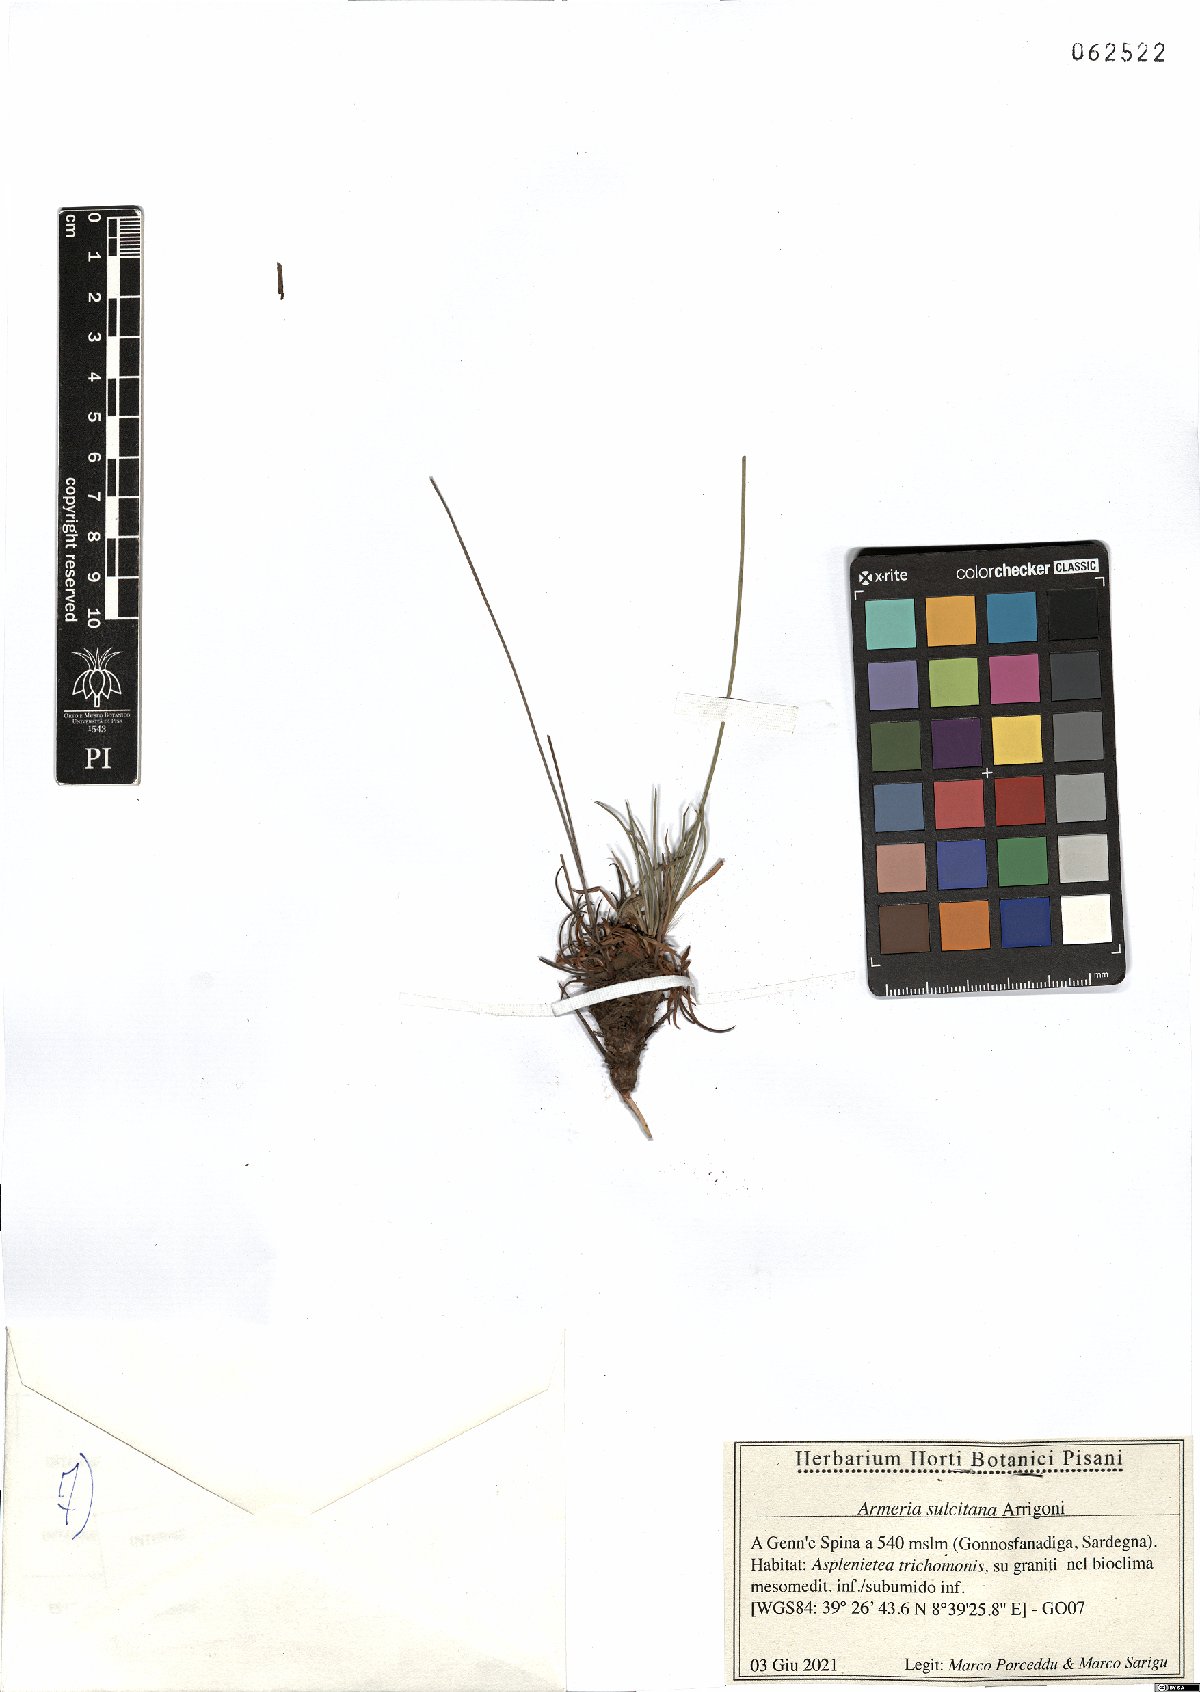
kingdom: Plantae
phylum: Tracheophyta
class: Magnoliopsida
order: Caryophyllales
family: Plumbaginaceae
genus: Armeria
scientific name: Armeria sulcitana
